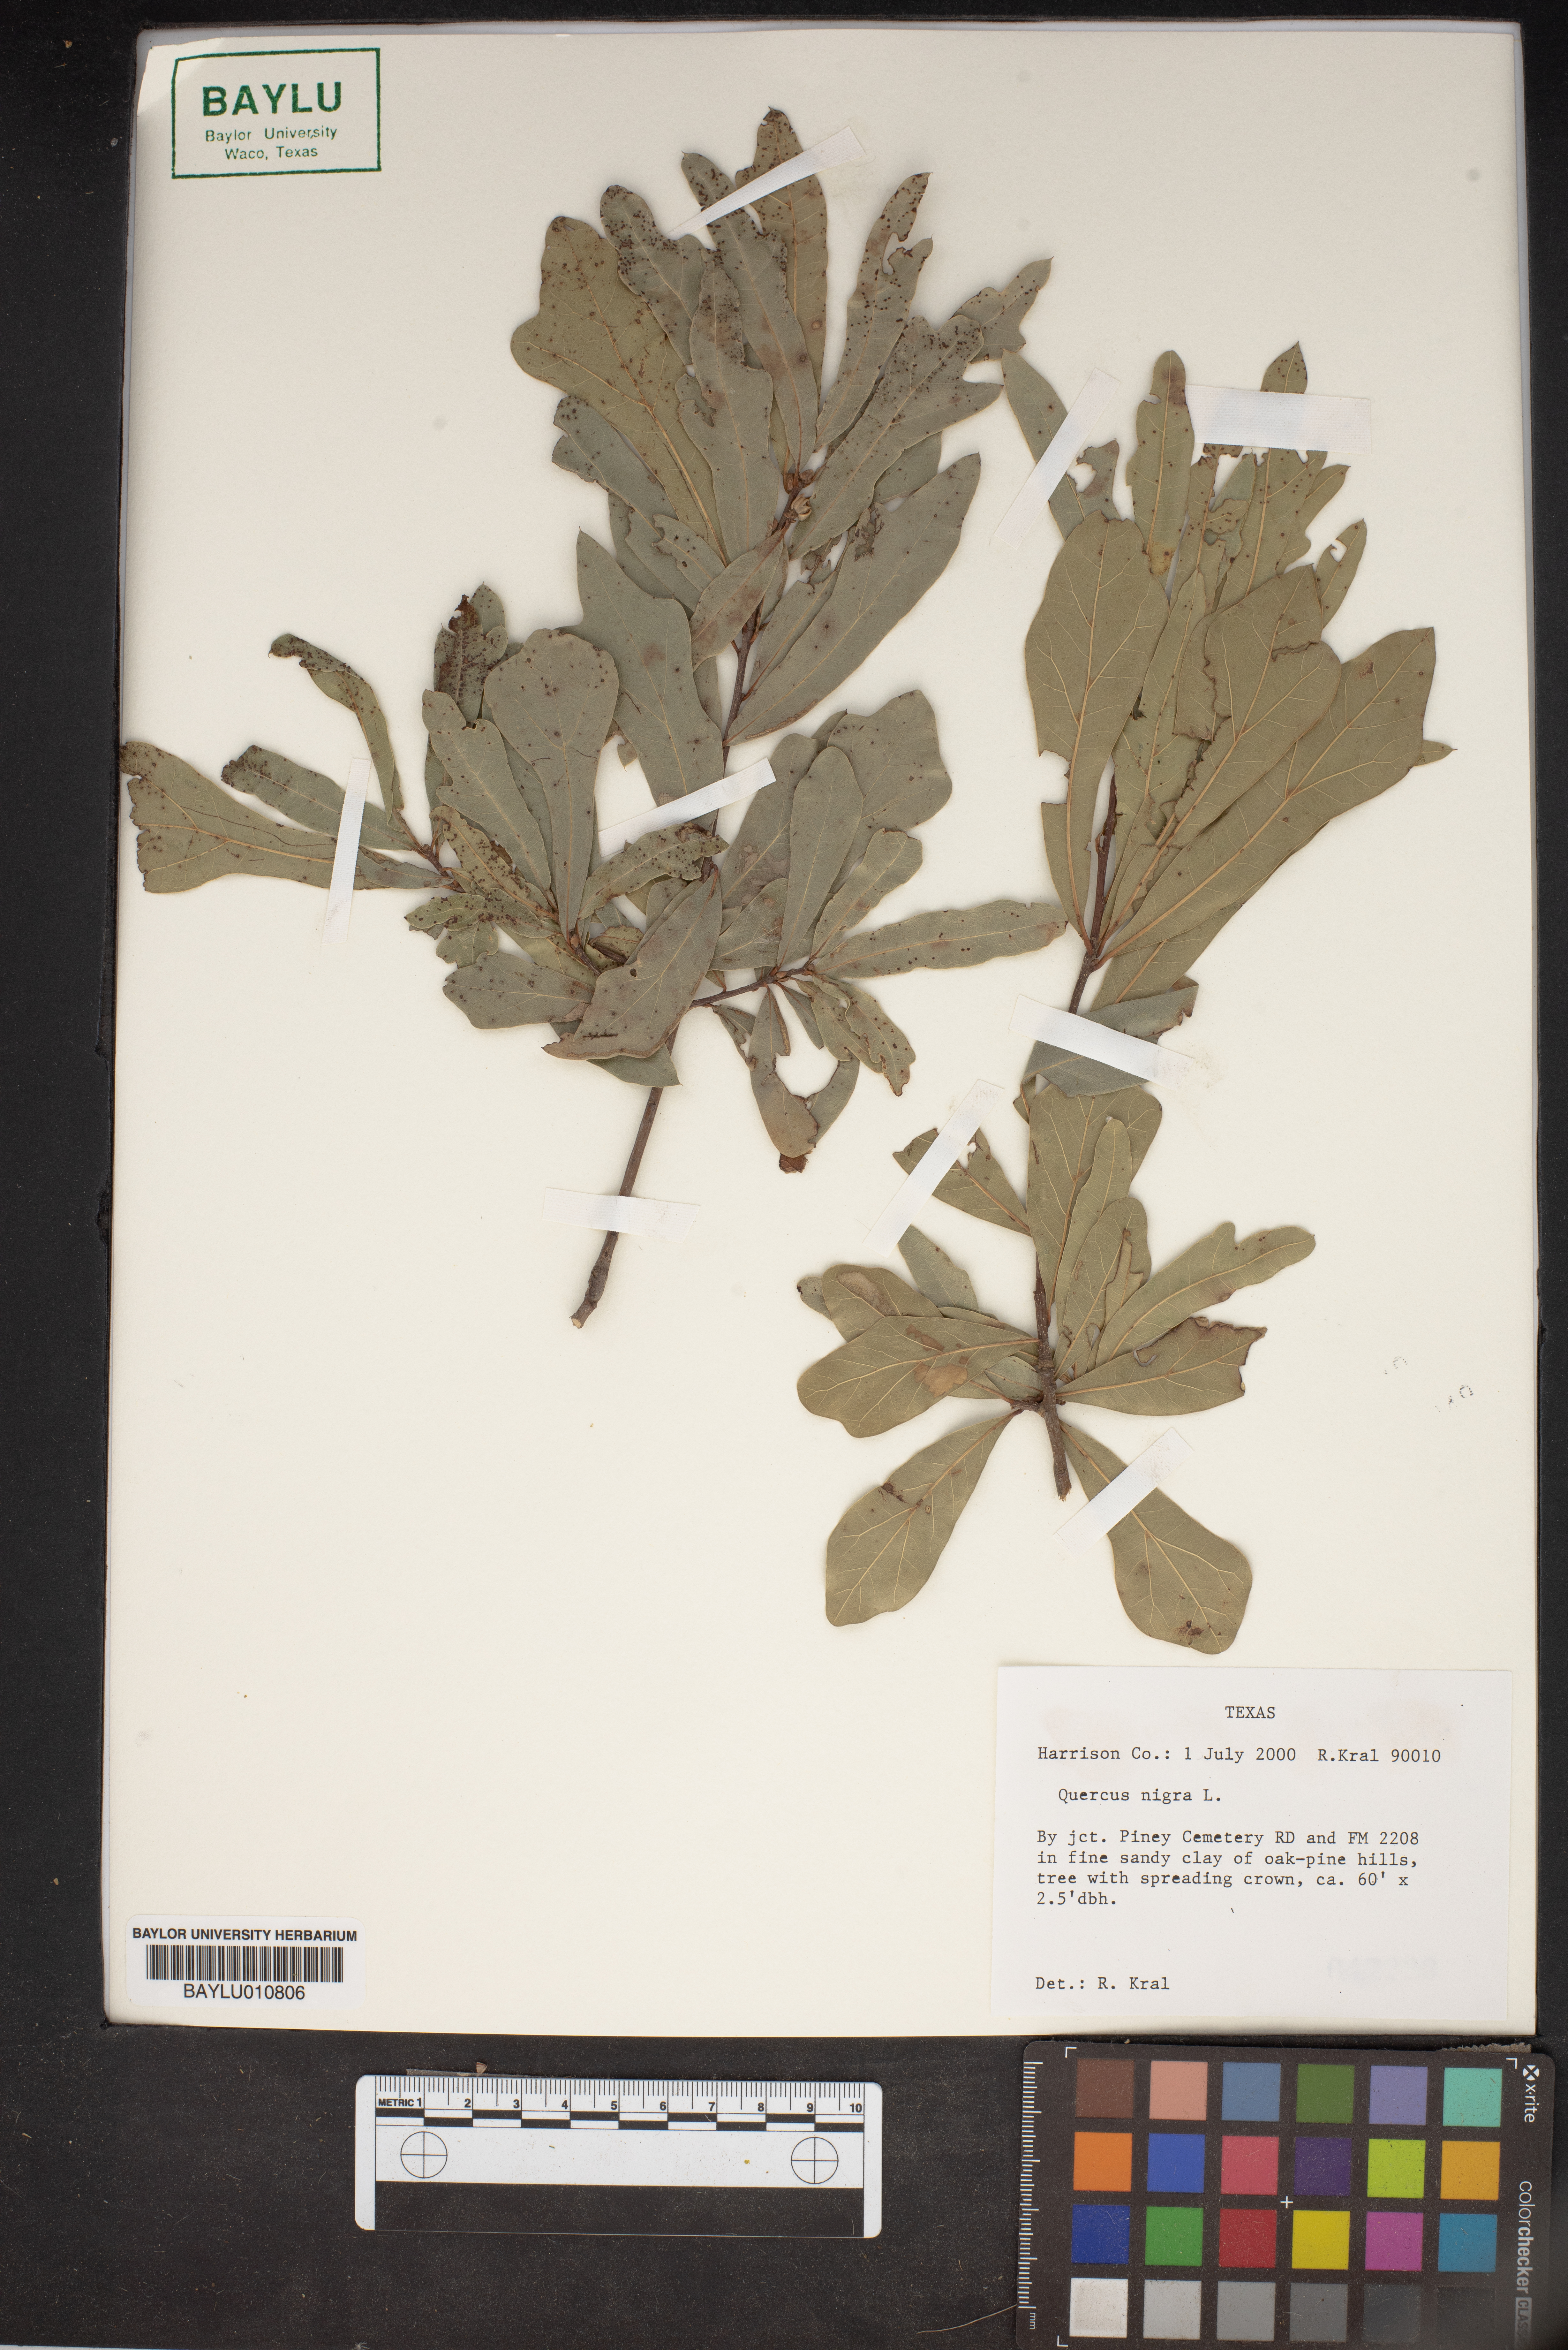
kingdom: Plantae
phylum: Tracheophyta
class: Magnoliopsida
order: Fagales
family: Fagaceae
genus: Quercus
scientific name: Quercus nigra
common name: Water oak
